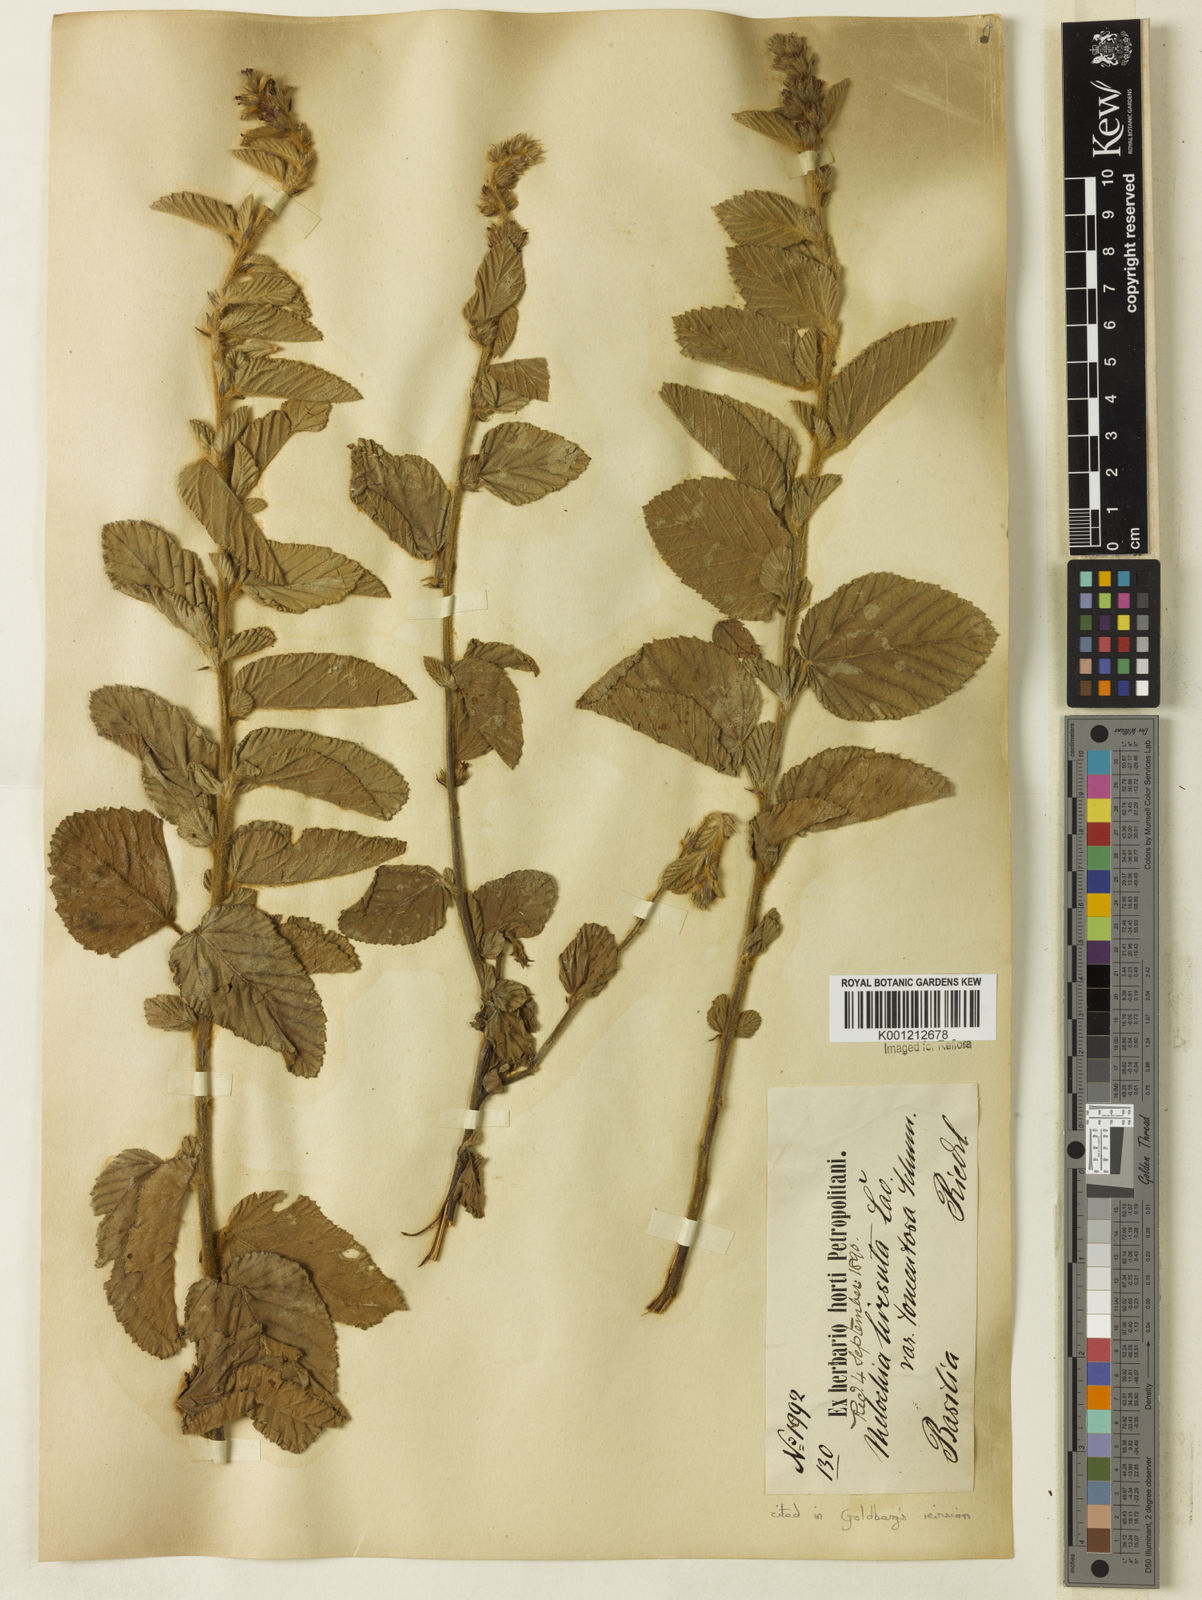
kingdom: Plantae
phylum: Tracheophyta
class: Magnoliopsida
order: Malvales
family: Malvaceae
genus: Melochia
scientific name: Melochia spicata
